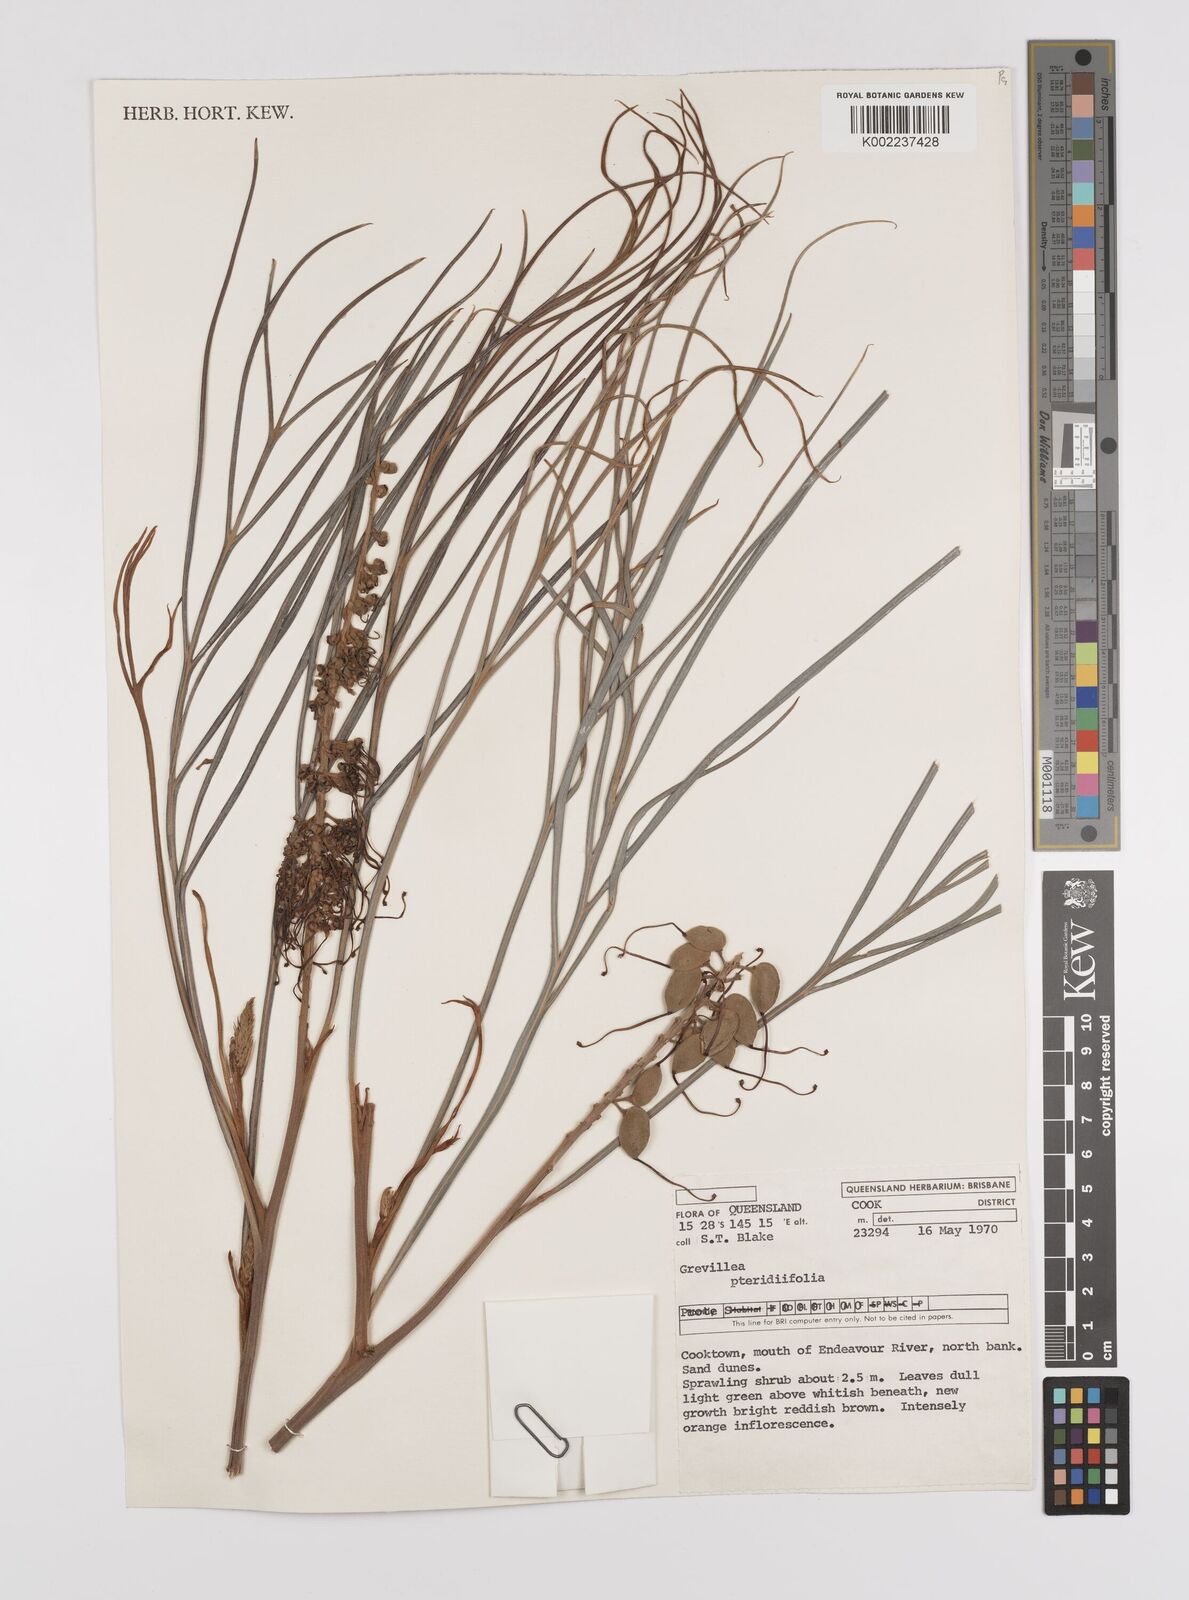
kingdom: Plantae
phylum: Tracheophyta
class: Magnoliopsida
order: Proteales
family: Proteaceae
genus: Grevillea
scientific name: Grevillea pteridifolia
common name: Golden grevillea
